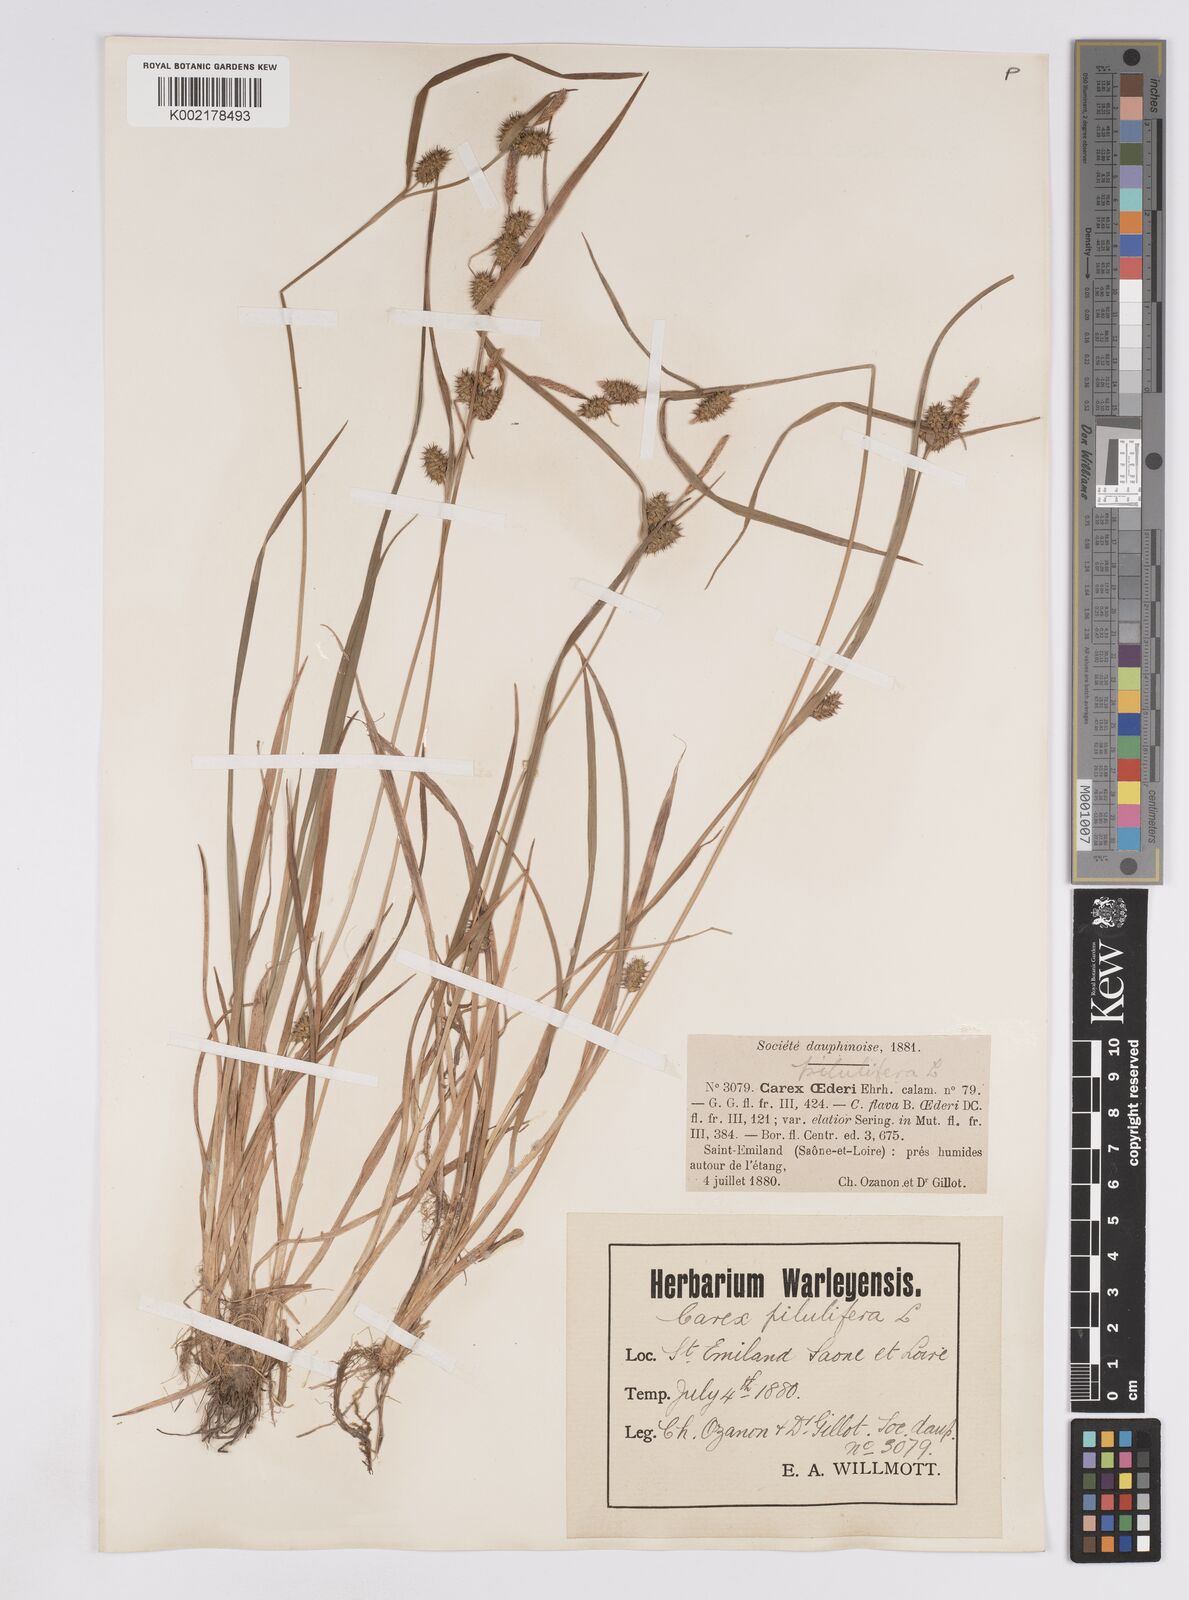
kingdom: Plantae
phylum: Tracheophyta
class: Liliopsida
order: Poales
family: Cyperaceae
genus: Carex
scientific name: Carex demissa
